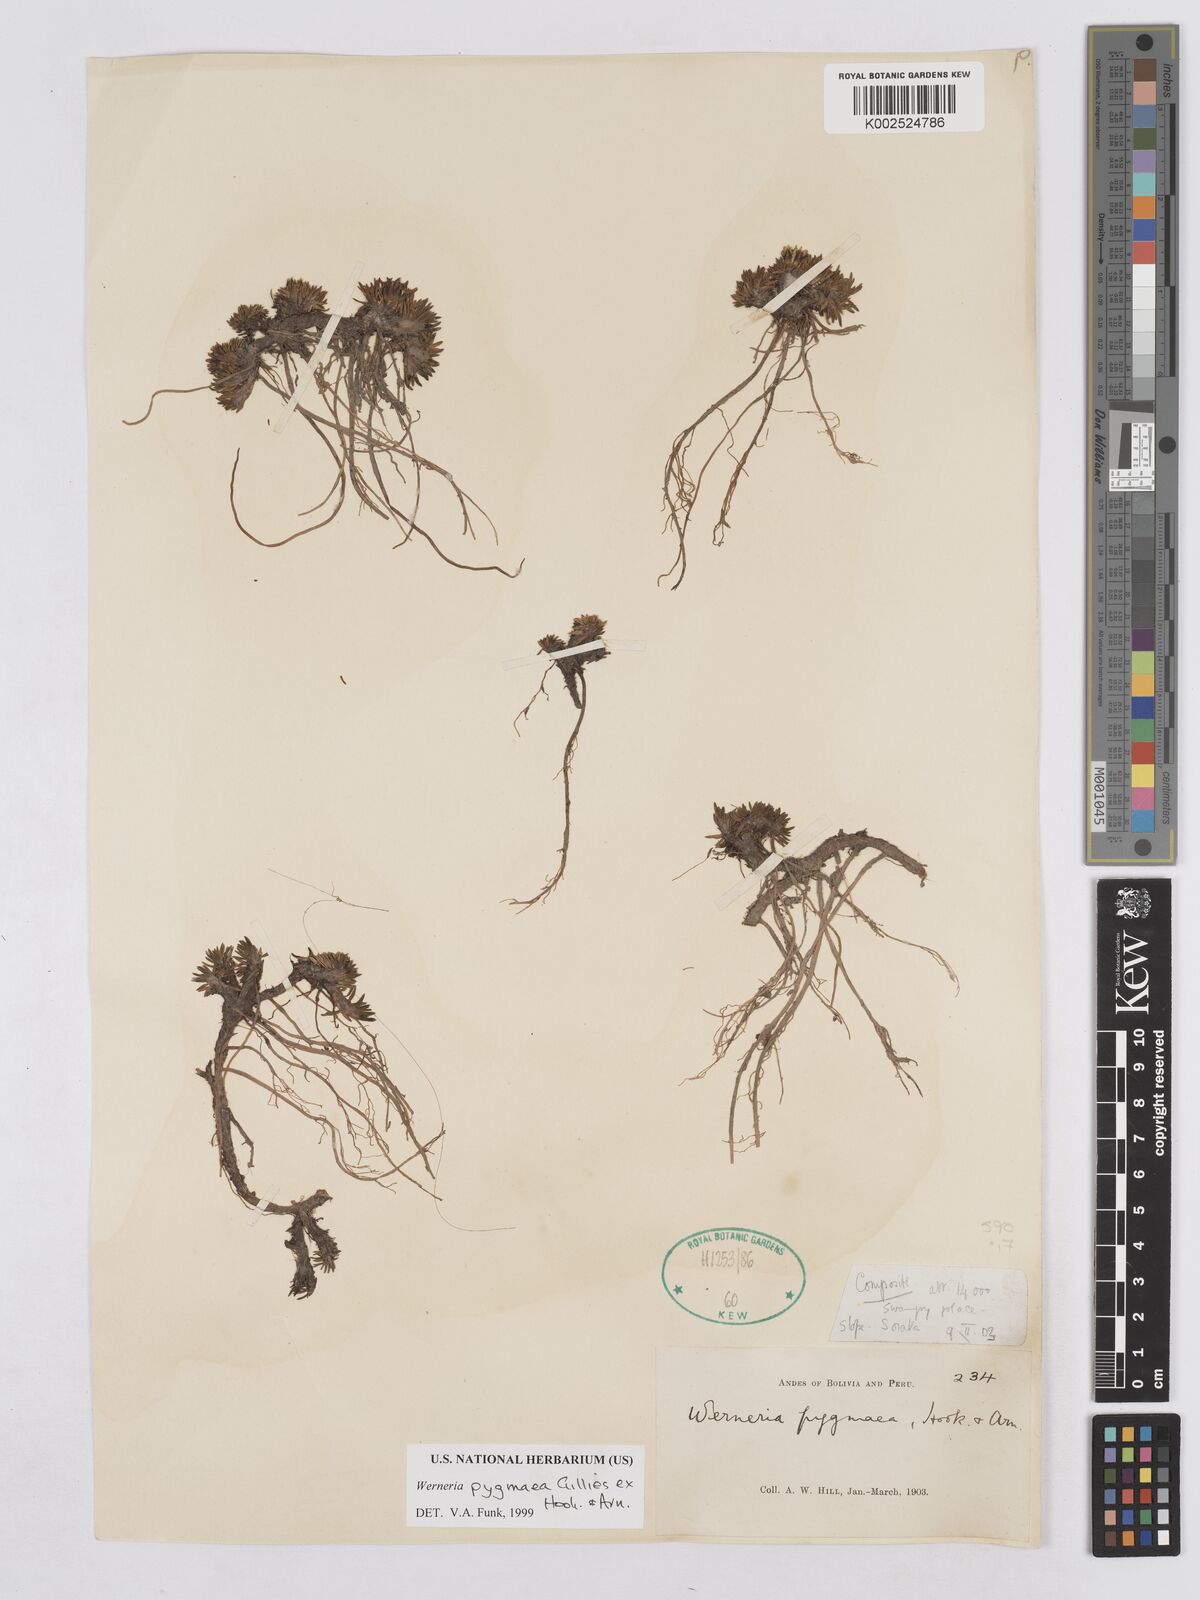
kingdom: Plantae
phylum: Tracheophyta
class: Magnoliopsida
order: Asterales
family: Asteraceae
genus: Rockhausenia
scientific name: Rockhausenia pygmaea
